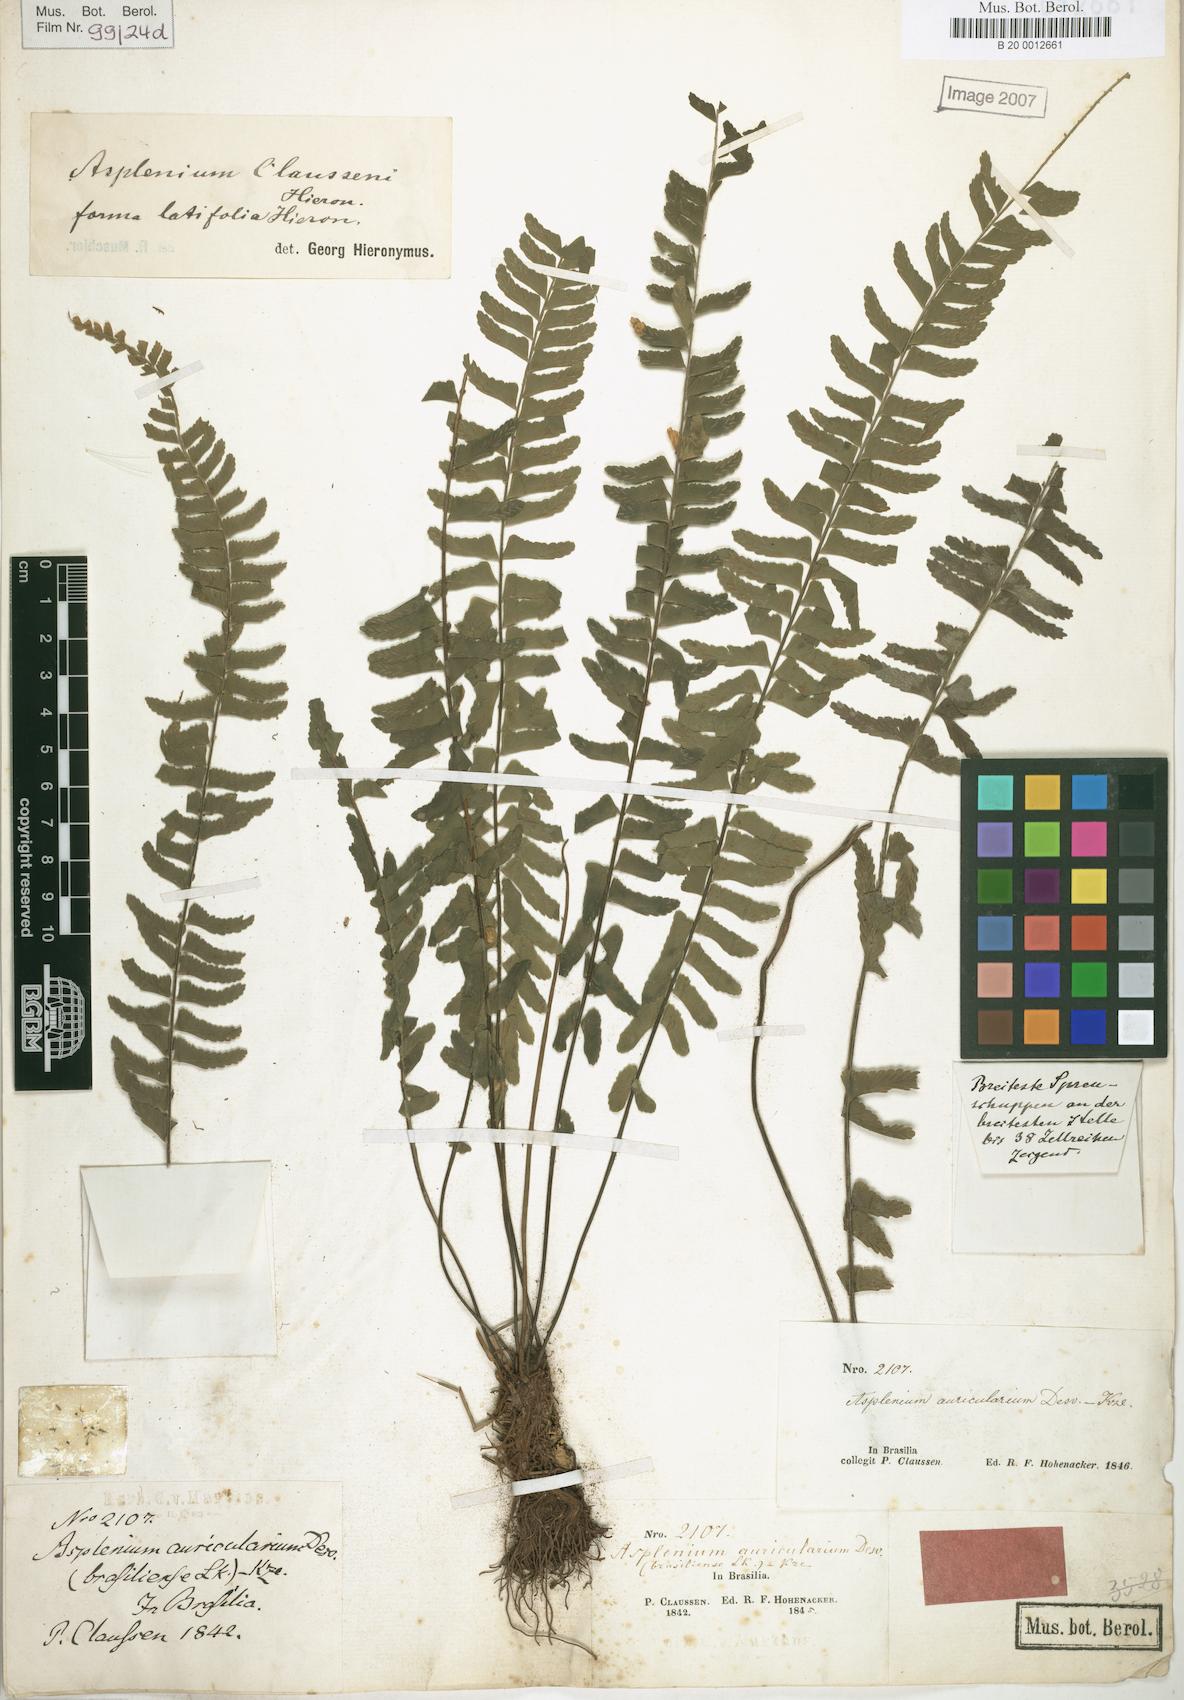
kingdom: Plantae
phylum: Tracheophyta
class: Polypodiopsida
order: Polypodiales
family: Aspleniaceae
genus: Asplenium
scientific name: Asplenium claussenii
